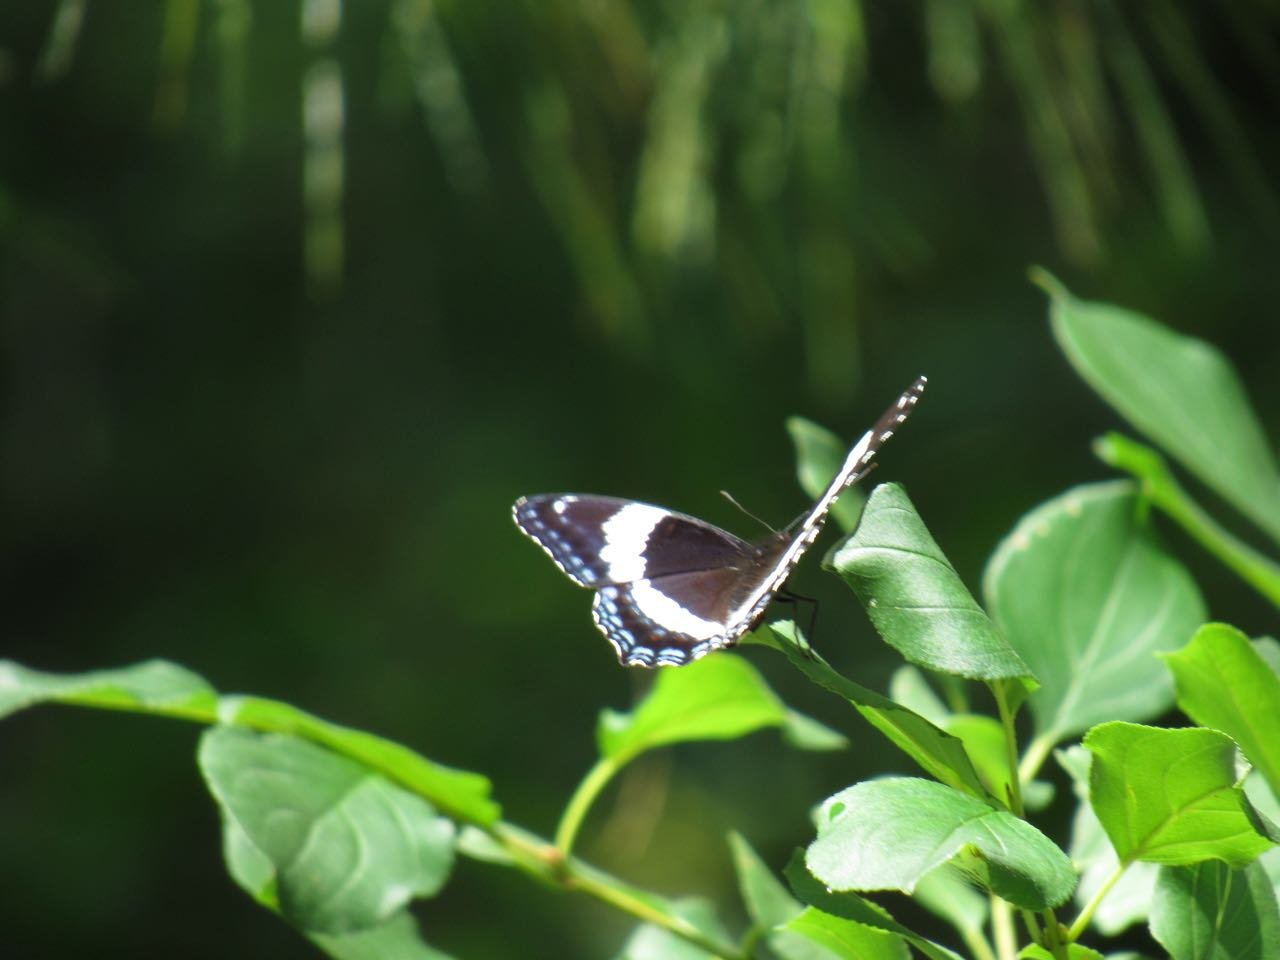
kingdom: Animalia
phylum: Arthropoda
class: Insecta
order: Lepidoptera
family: Nymphalidae
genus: Limenitis
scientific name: Limenitis arthemis
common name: Red-spotted Admiral
